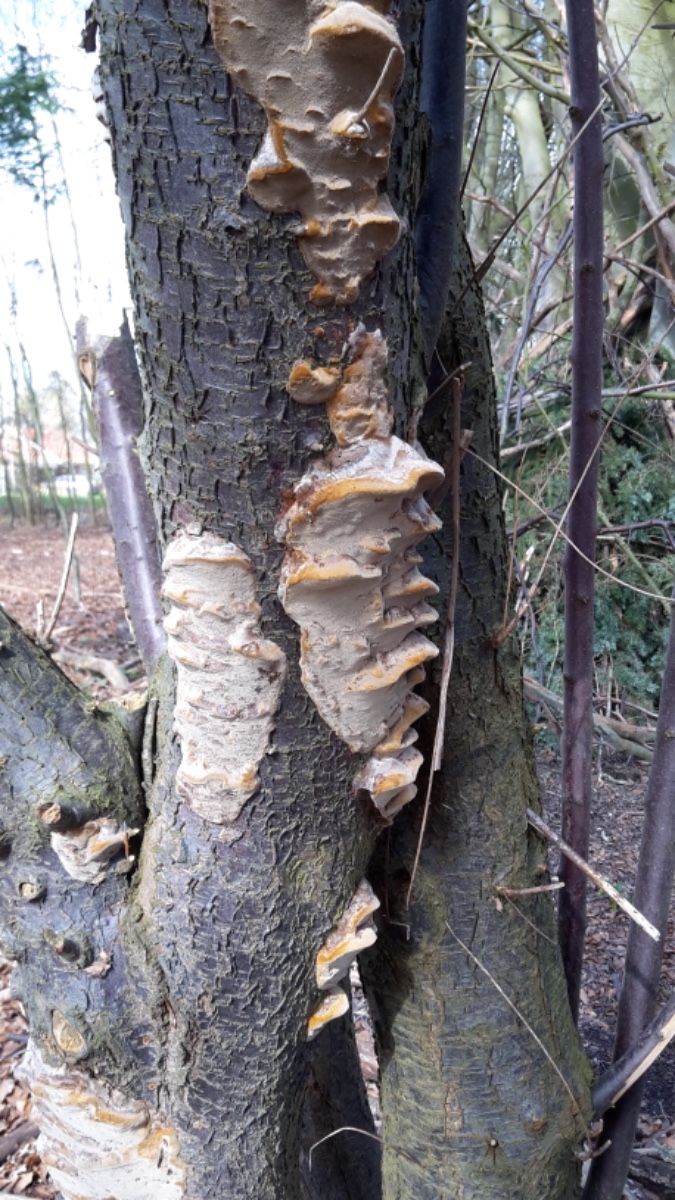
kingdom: Fungi
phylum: Basidiomycota
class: Agaricomycetes
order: Hymenochaetales
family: Hymenochaetaceae
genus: Phellinus
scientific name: Phellinus pomaceus
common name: blomme-ildporesvamp
